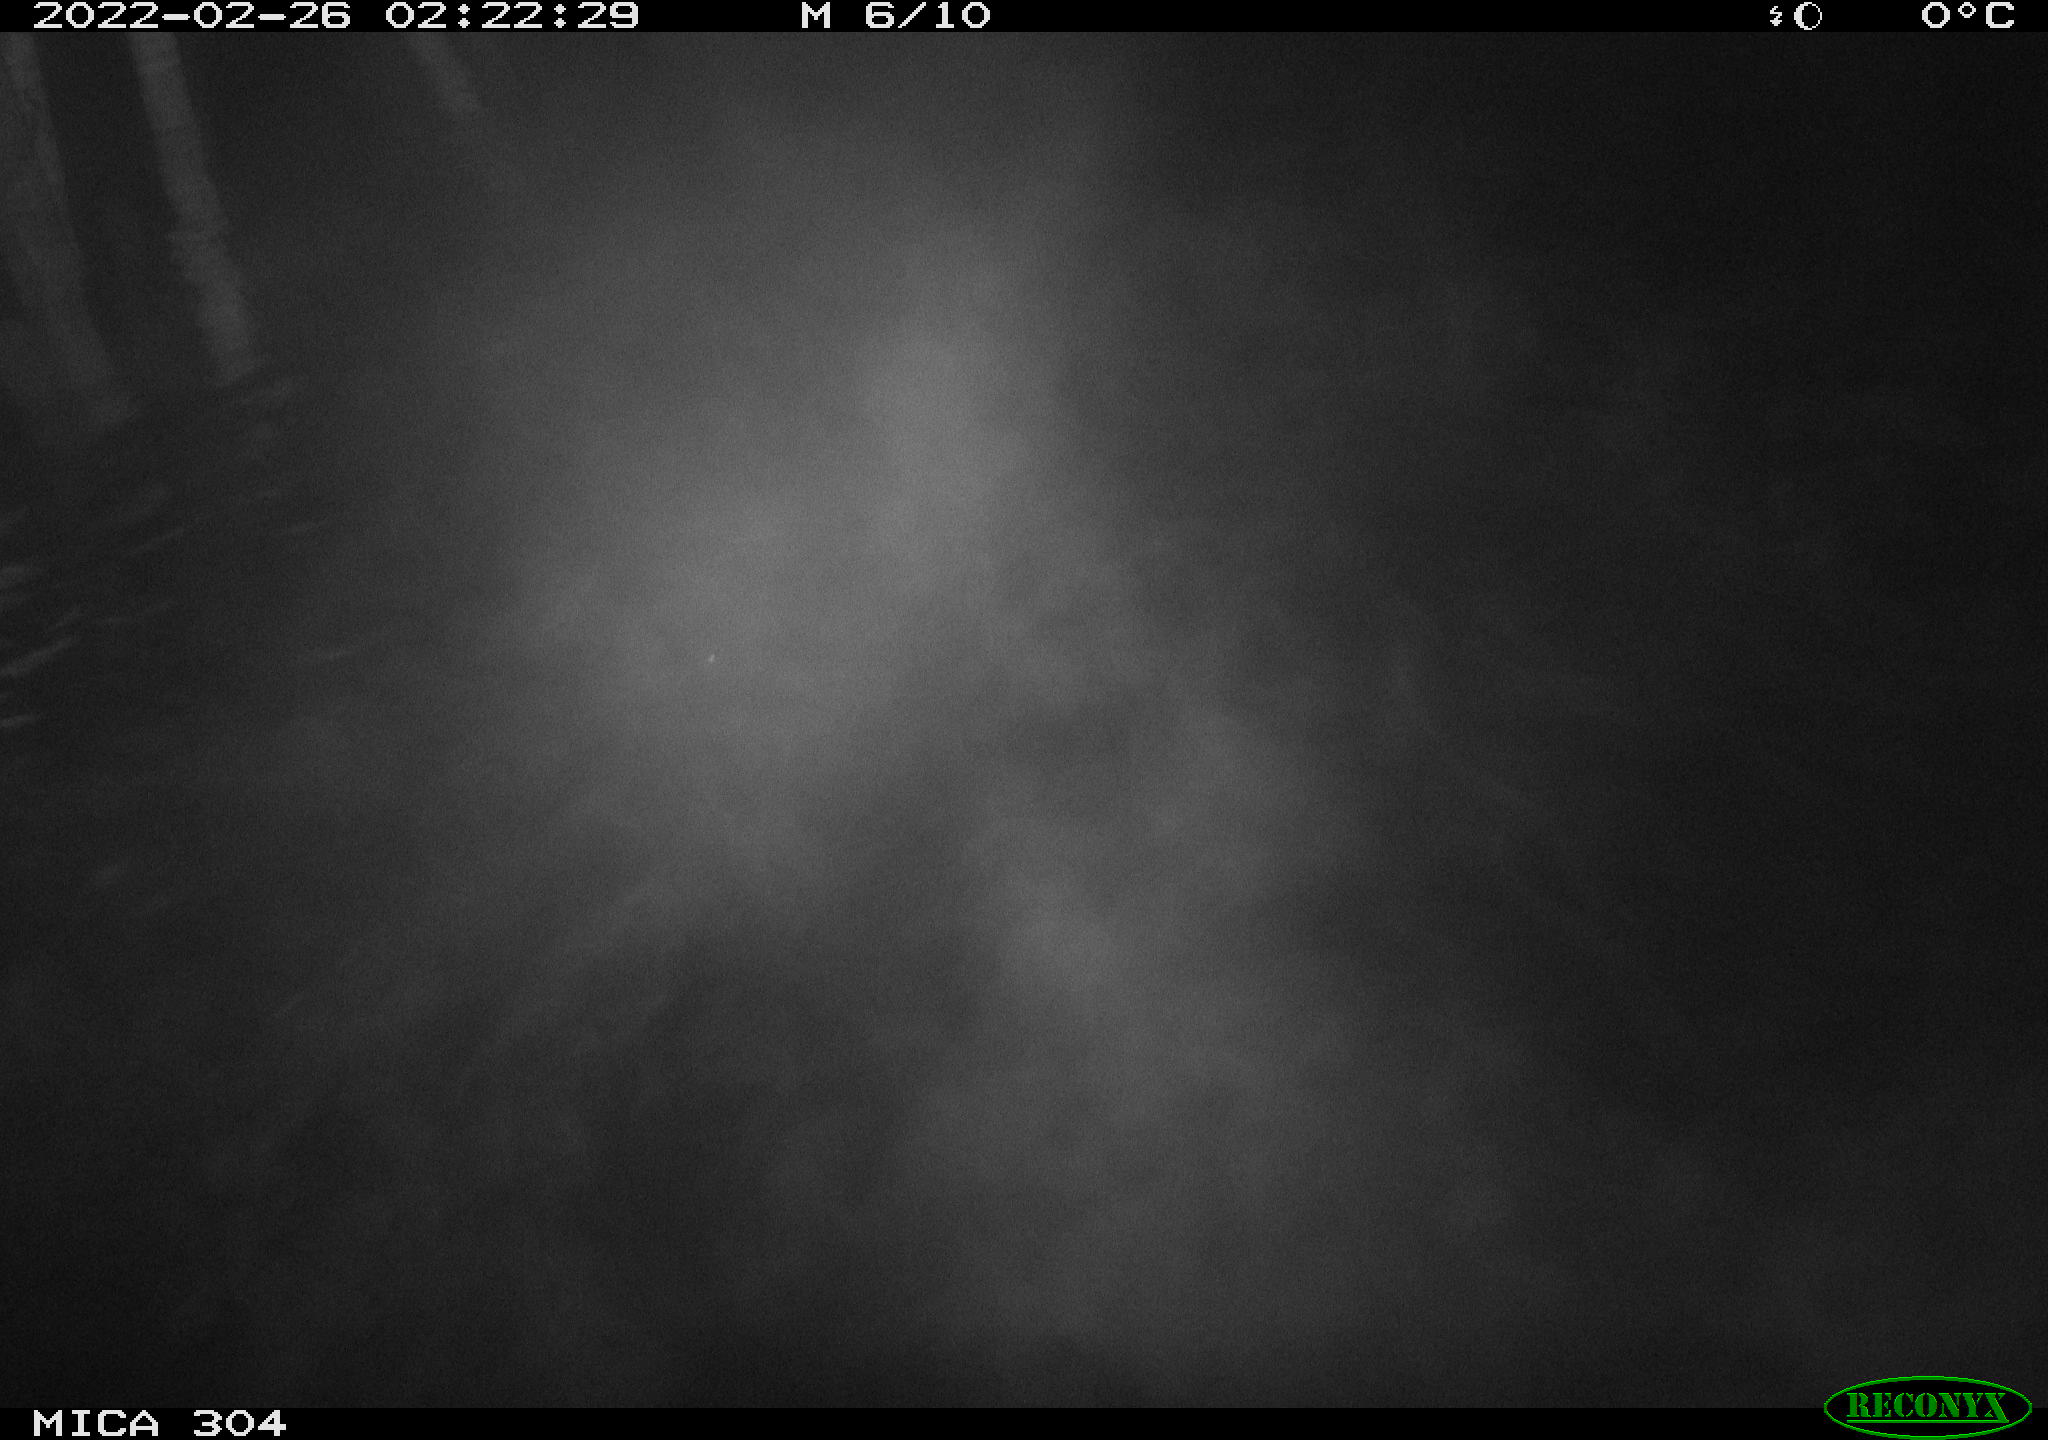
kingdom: Animalia
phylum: Chordata
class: Mammalia
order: Rodentia
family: Cricetidae
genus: Ondatra
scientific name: Ondatra zibethicus
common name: Muskrat
